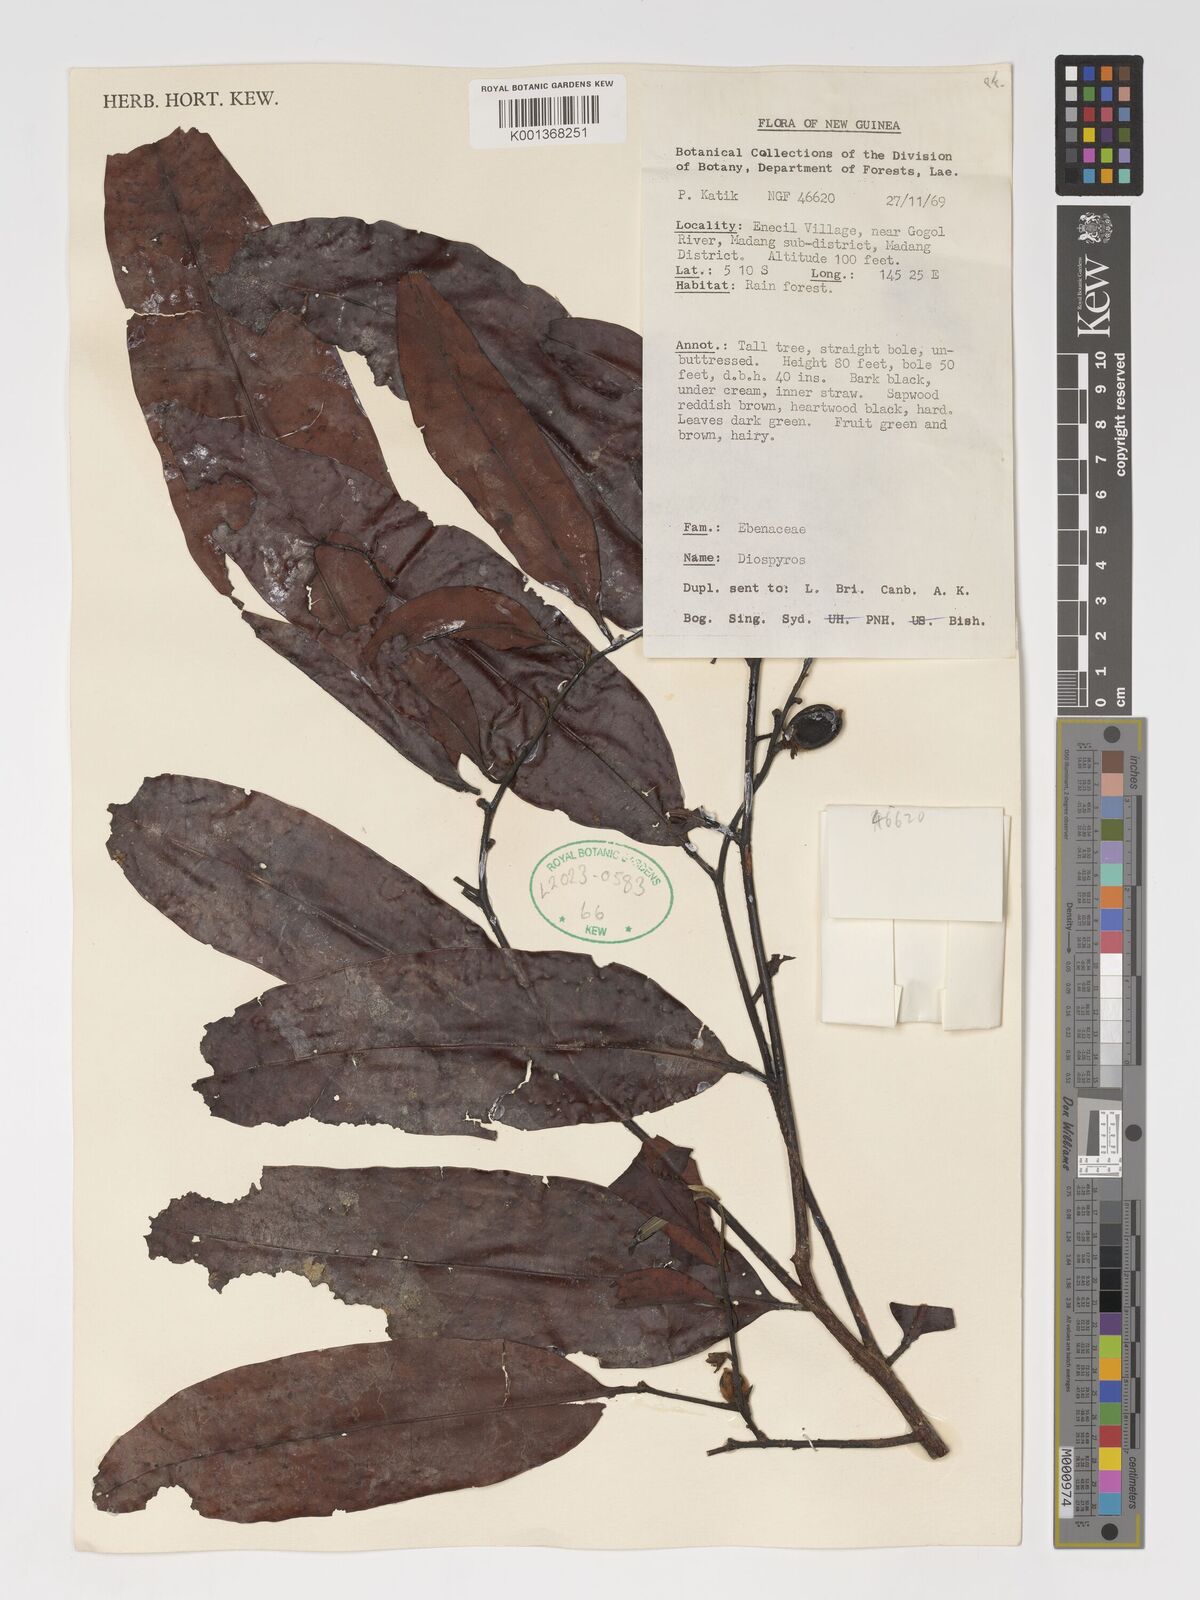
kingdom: Plantae
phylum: Tracheophyta
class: Magnoliopsida
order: Ericales
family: Ebenaceae
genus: Diospyros
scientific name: Diospyros
